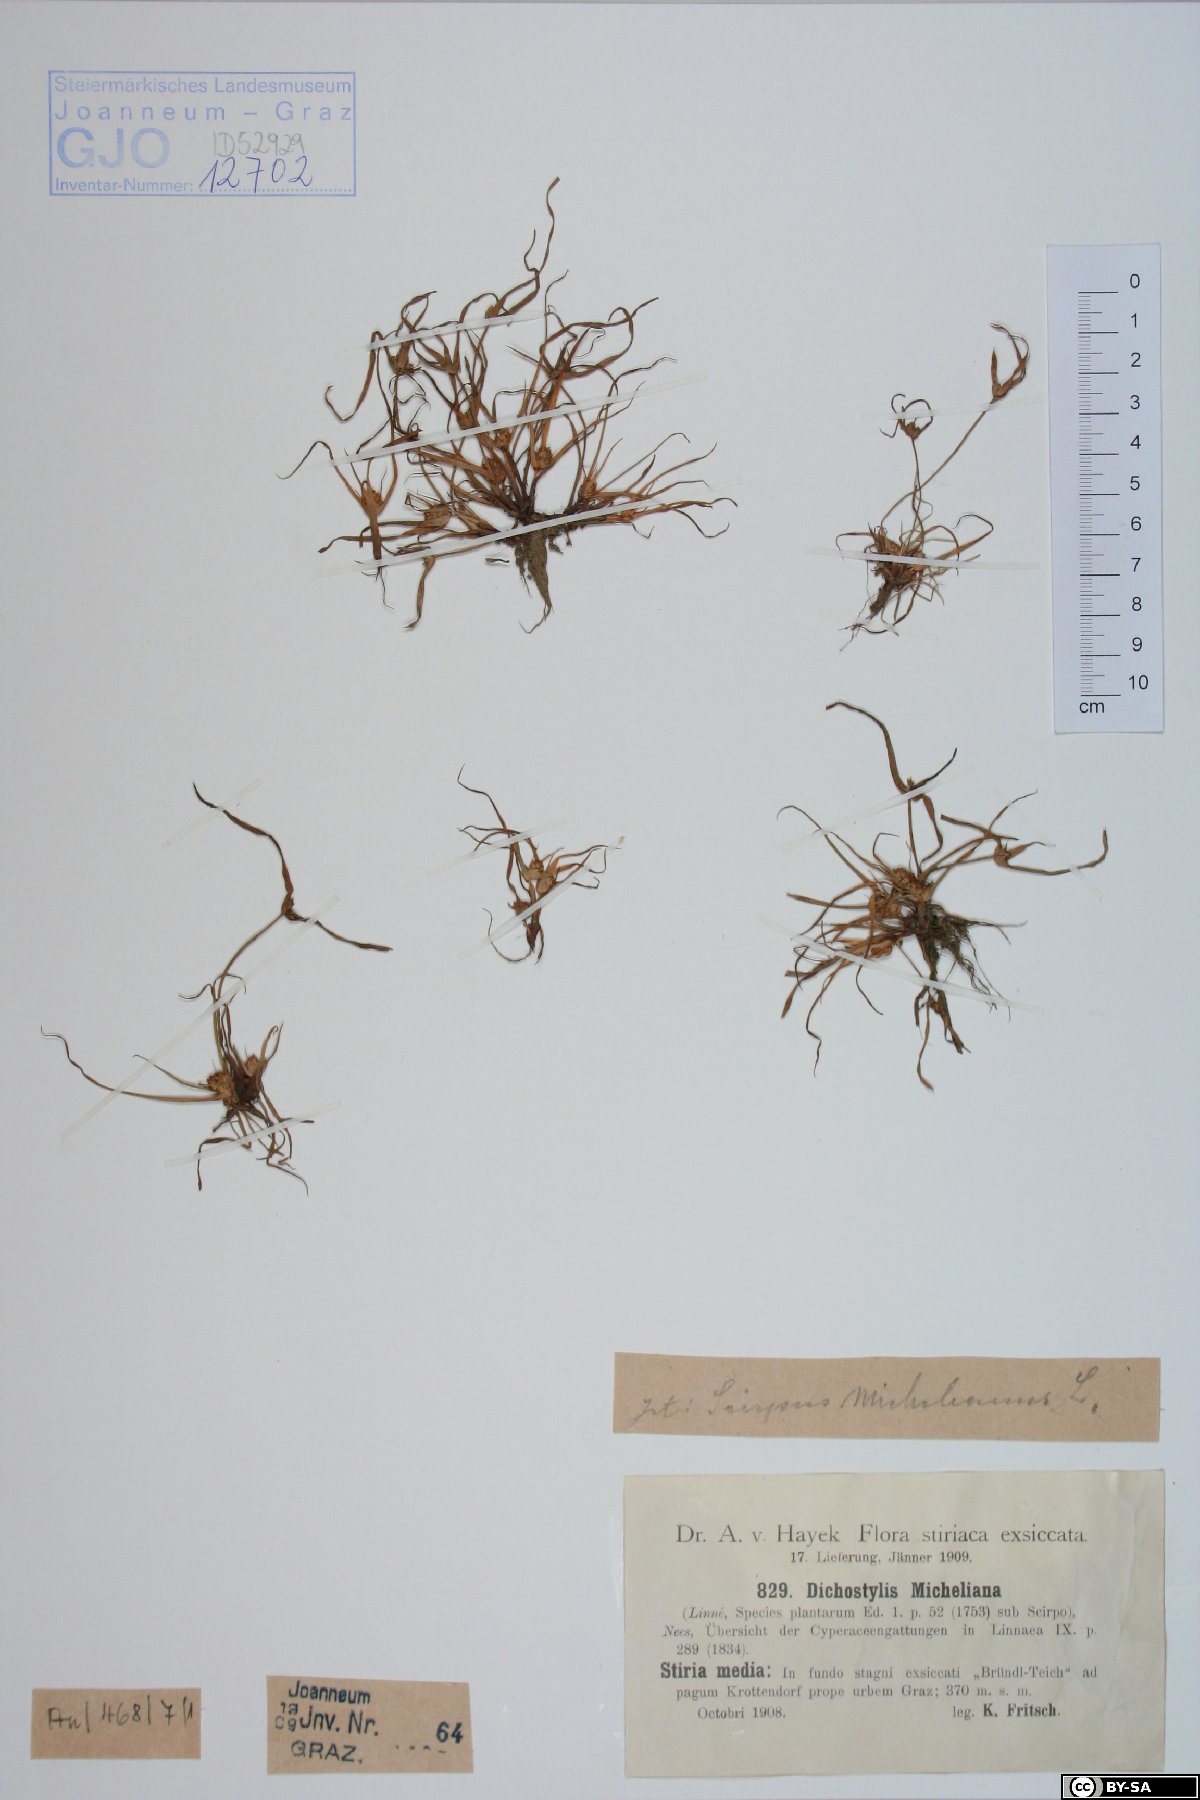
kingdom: Plantae
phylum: Tracheophyta
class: Liliopsida
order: Poales
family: Cyperaceae
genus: Cyperus
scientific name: Cyperus michelianus
